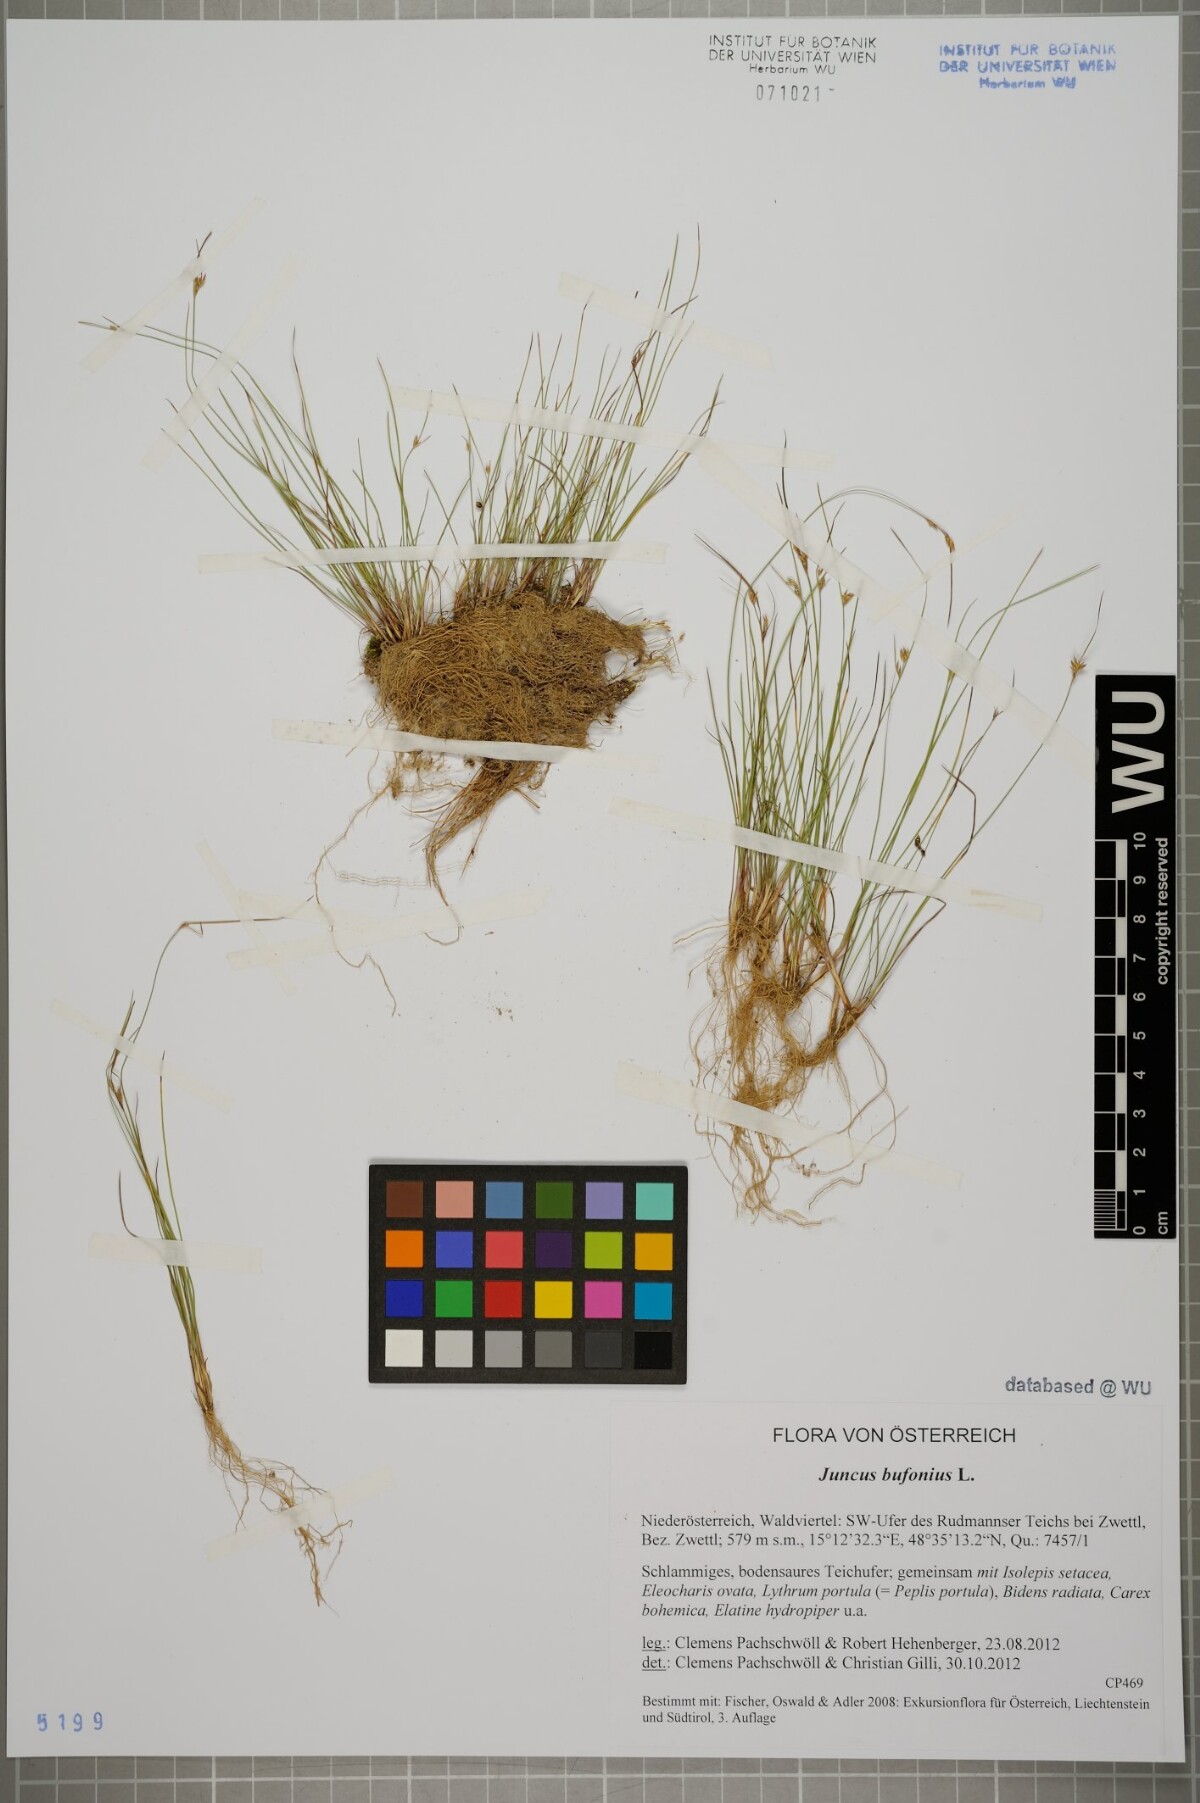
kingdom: Plantae
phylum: Tracheophyta
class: Liliopsida
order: Poales
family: Juncaceae
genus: Juncus
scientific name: Juncus bufonius
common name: Toad rush
